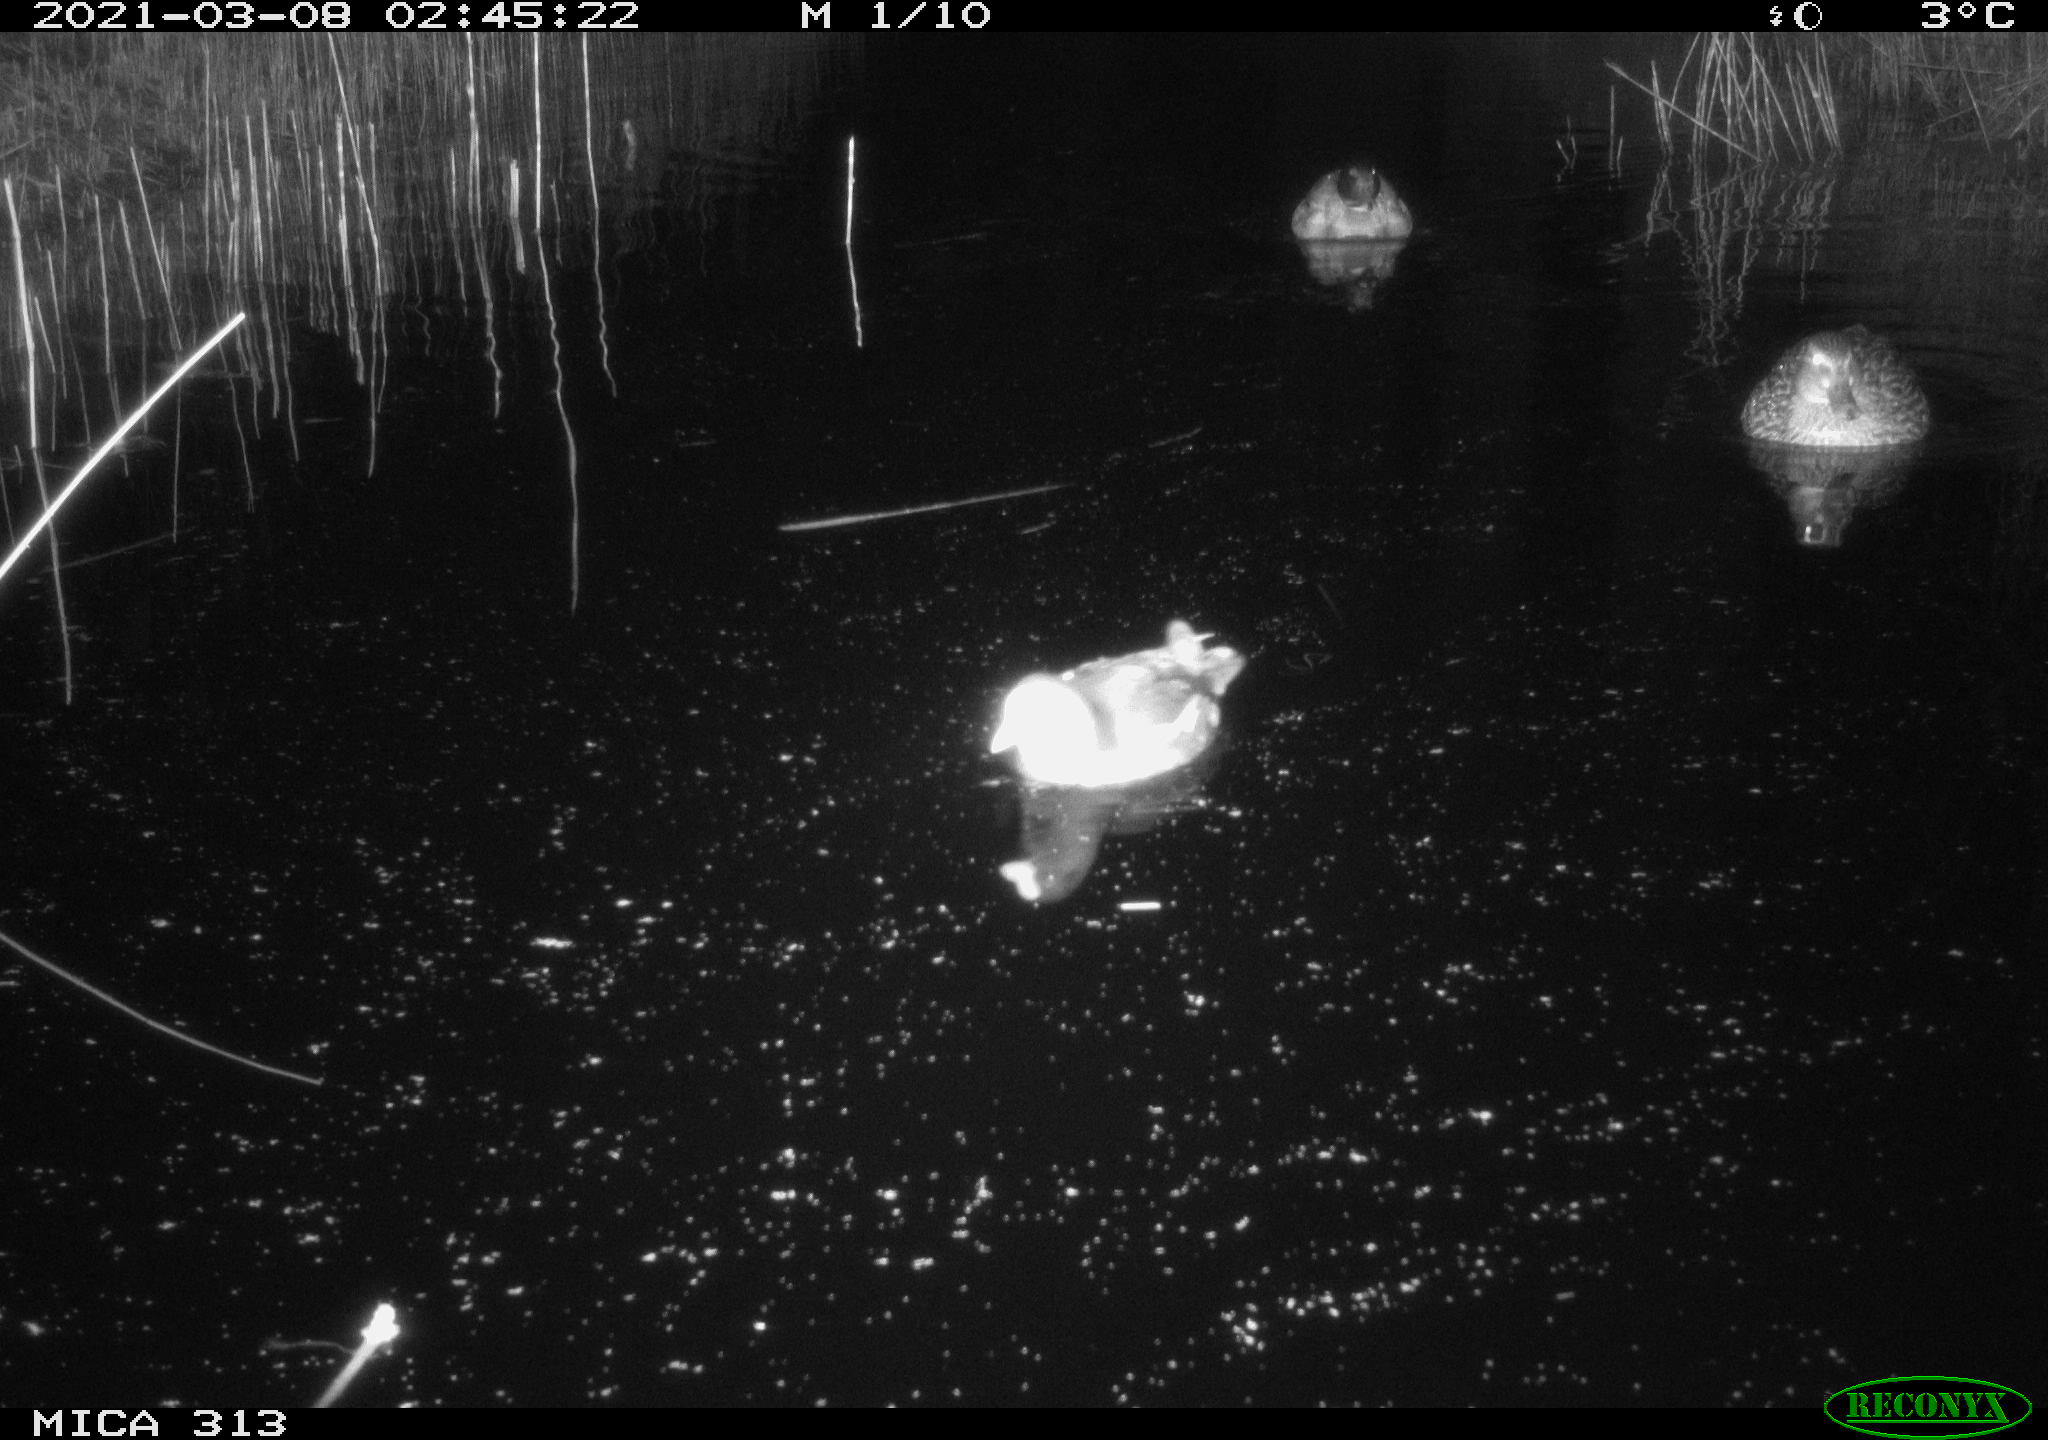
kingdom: Animalia
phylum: Chordata
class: Aves
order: Anseriformes
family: Anatidae
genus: Anas
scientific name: Anas platyrhynchos
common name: Mallard
